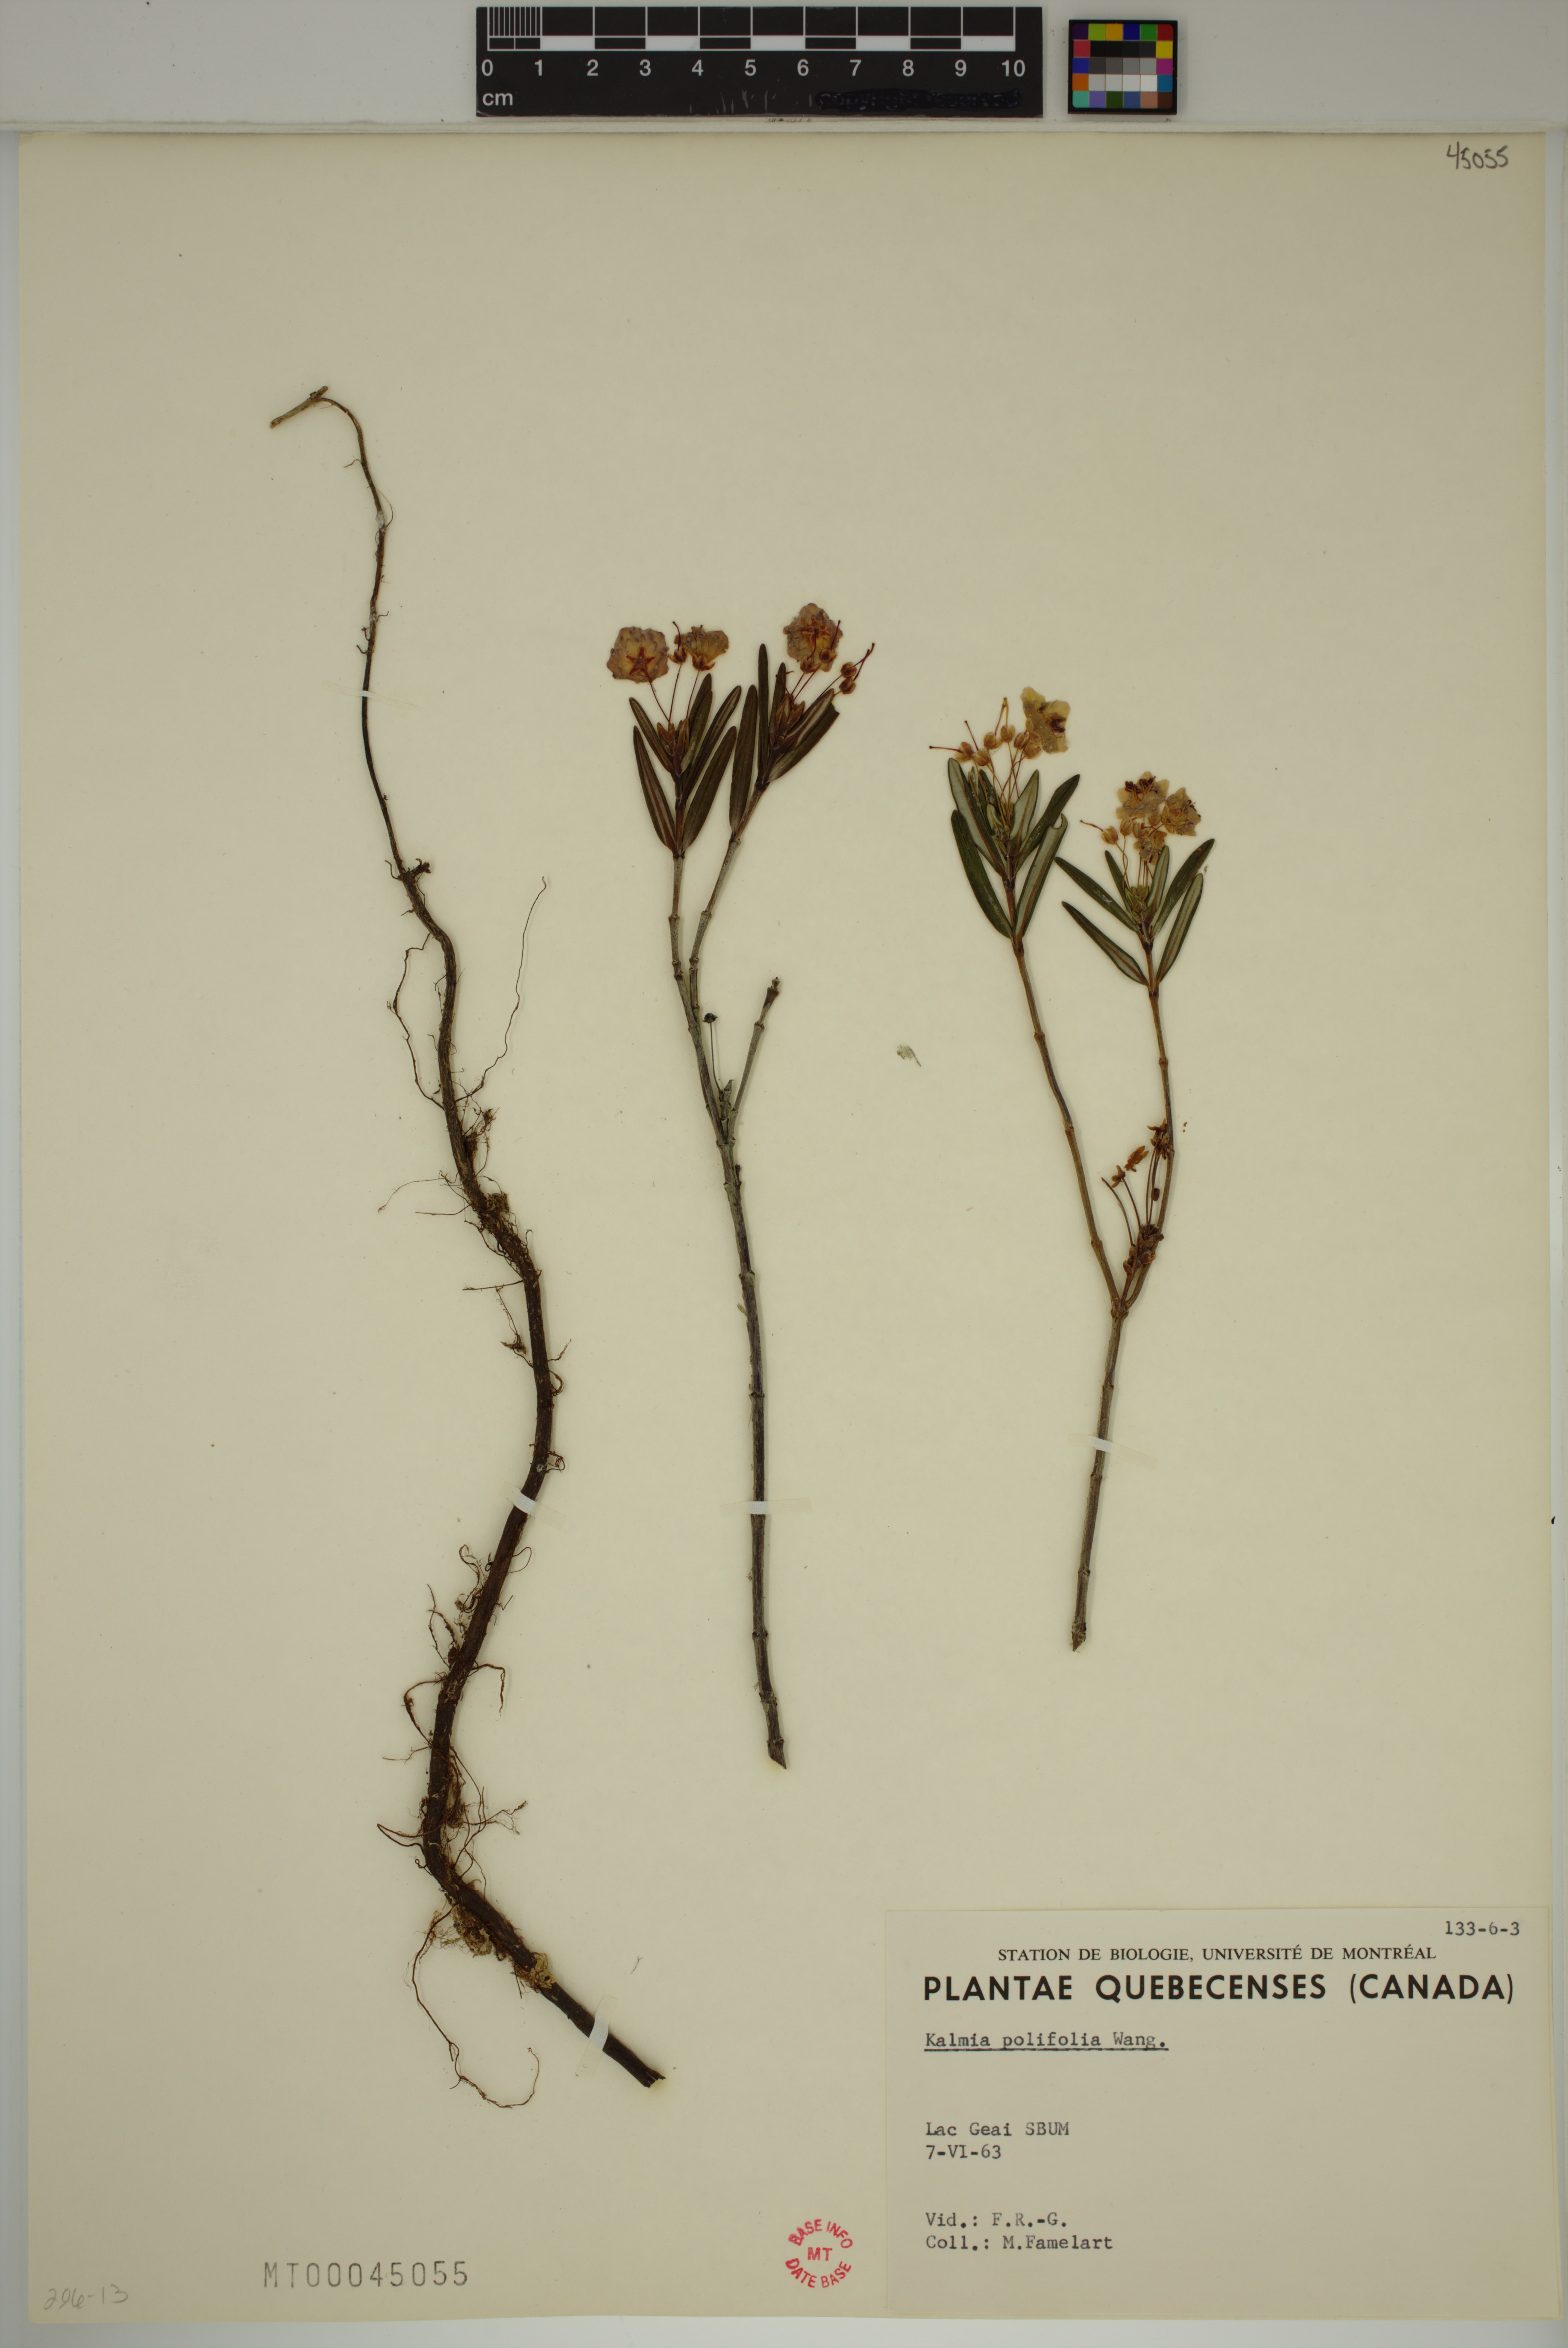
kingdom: Plantae
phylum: Tracheophyta
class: Magnoliopsida
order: Ericales
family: Ericaceae
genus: Kalmia
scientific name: Kalmia polifolia
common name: Bog-laurel
